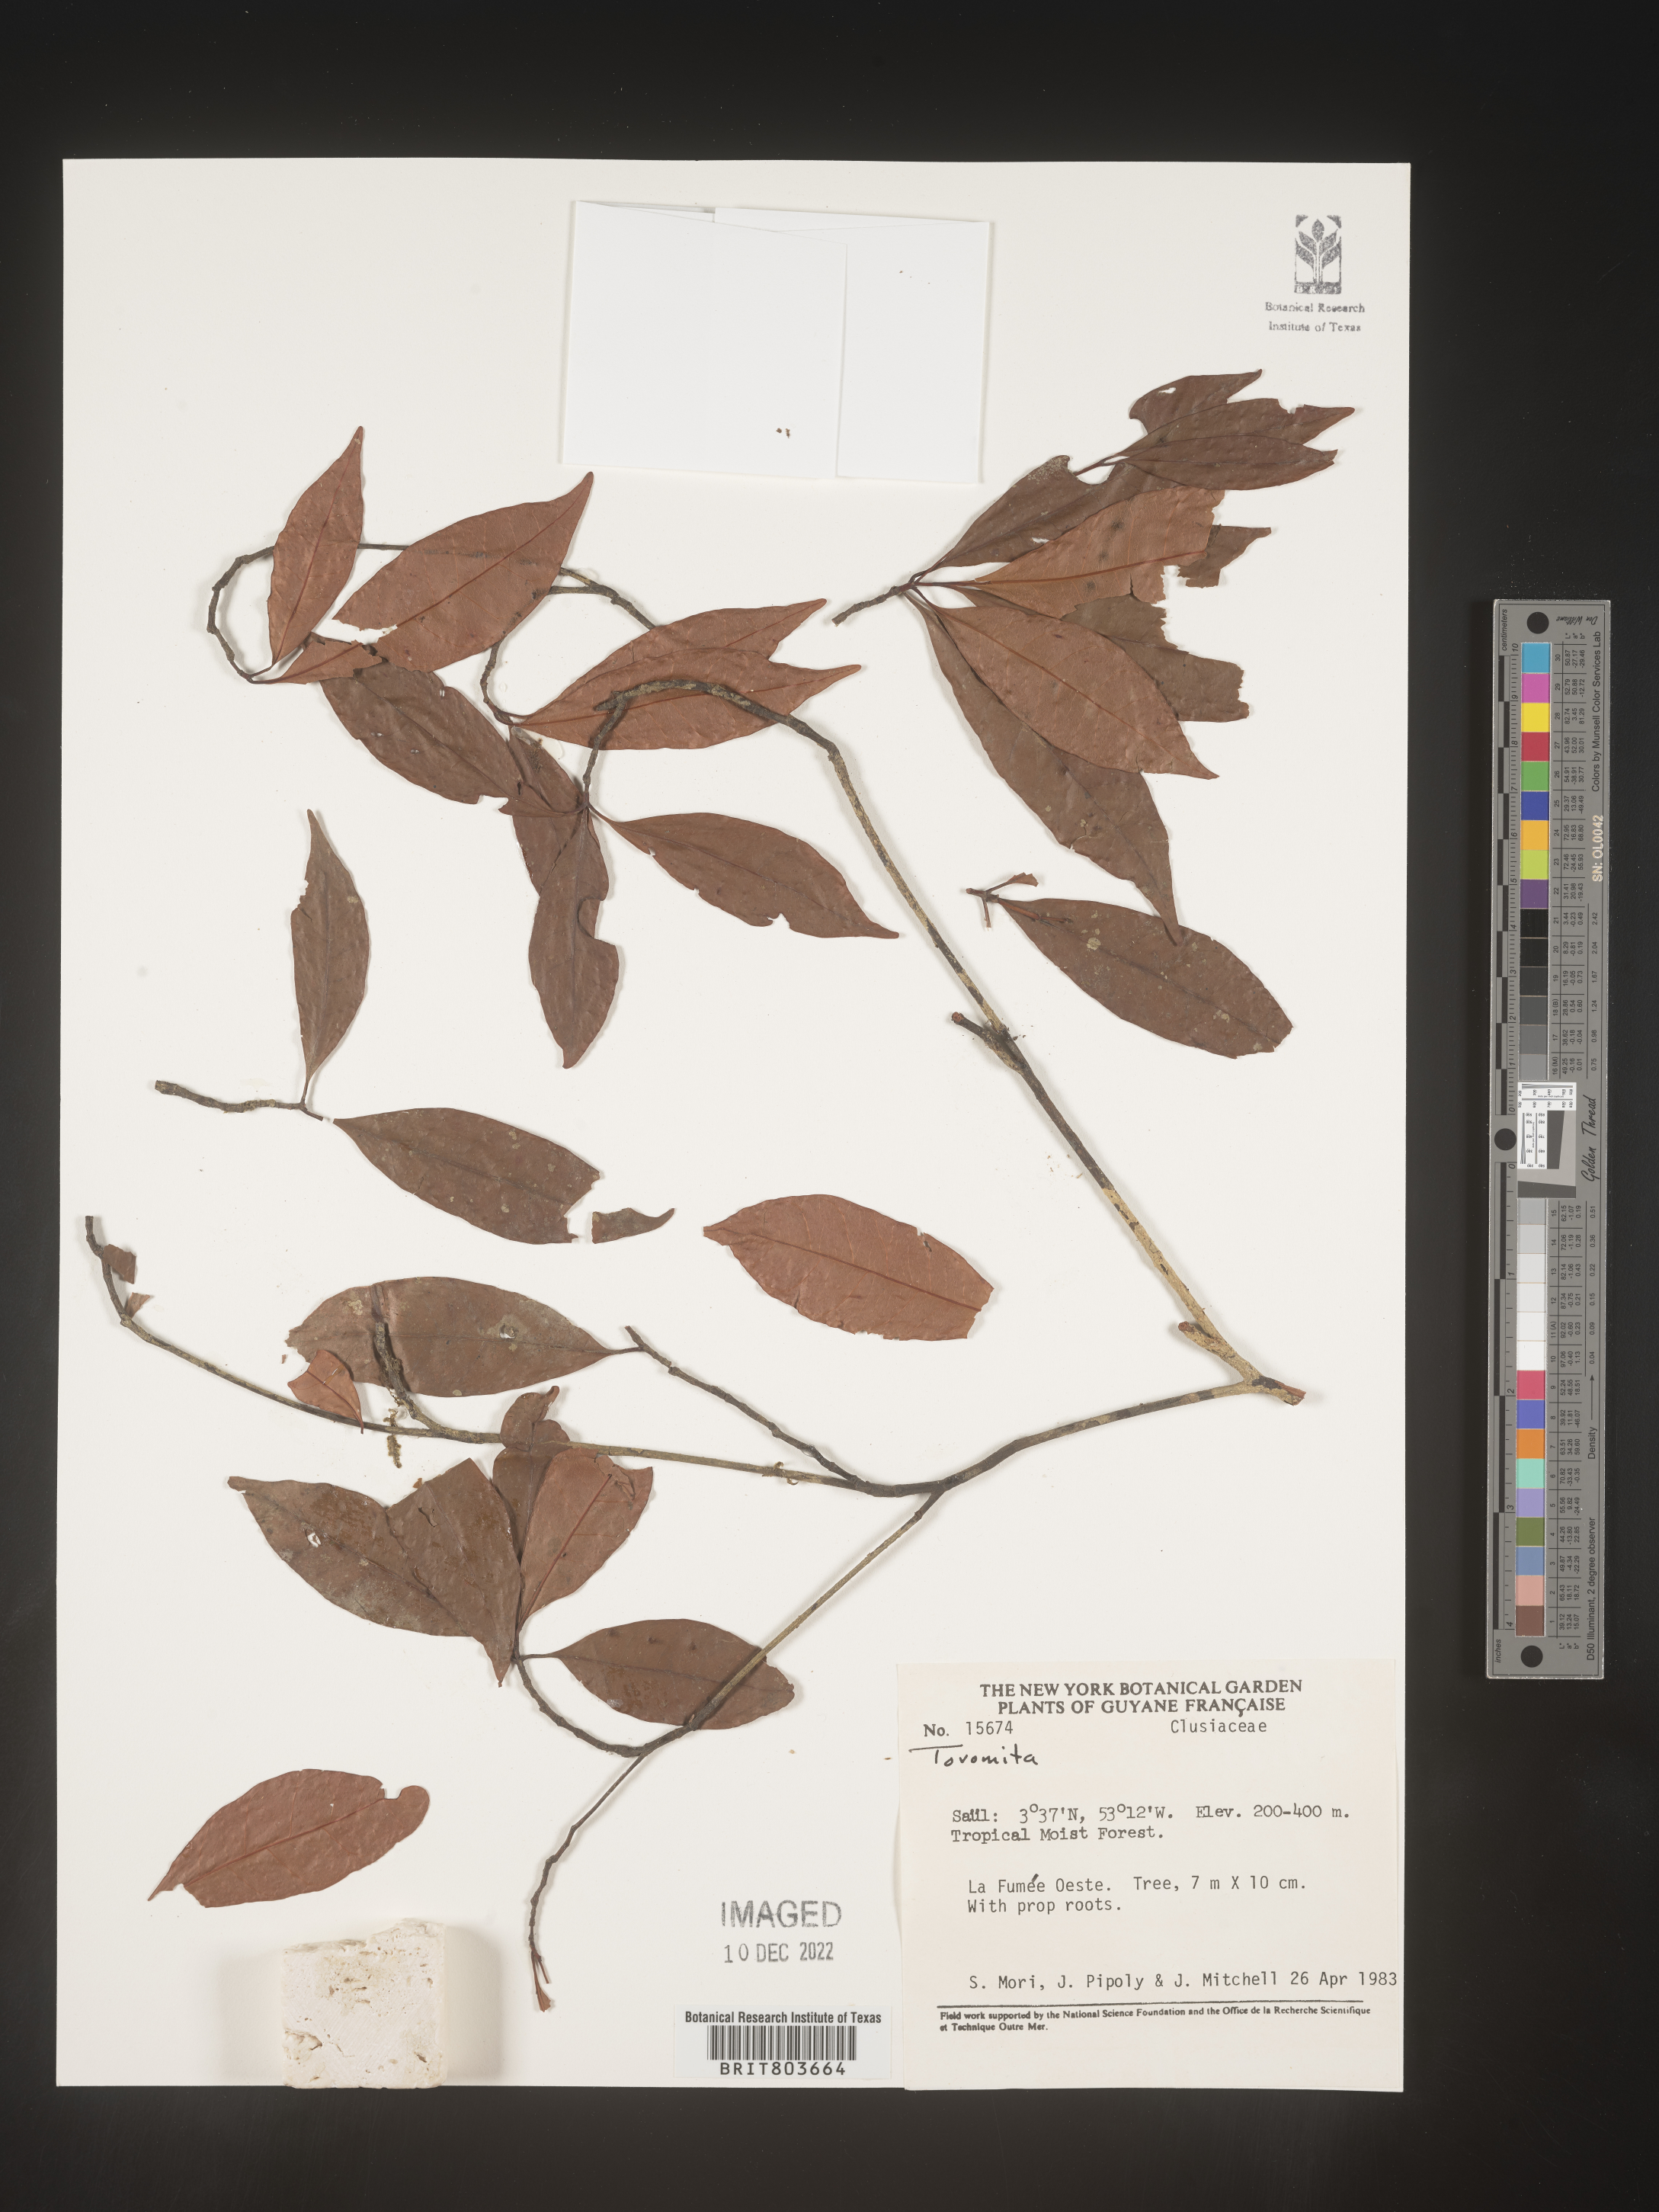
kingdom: Plantae
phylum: Tracheophyta
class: Magnoliopsida
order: Malpighiales
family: Clusiaceae
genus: Tovomita
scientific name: Tovomita
